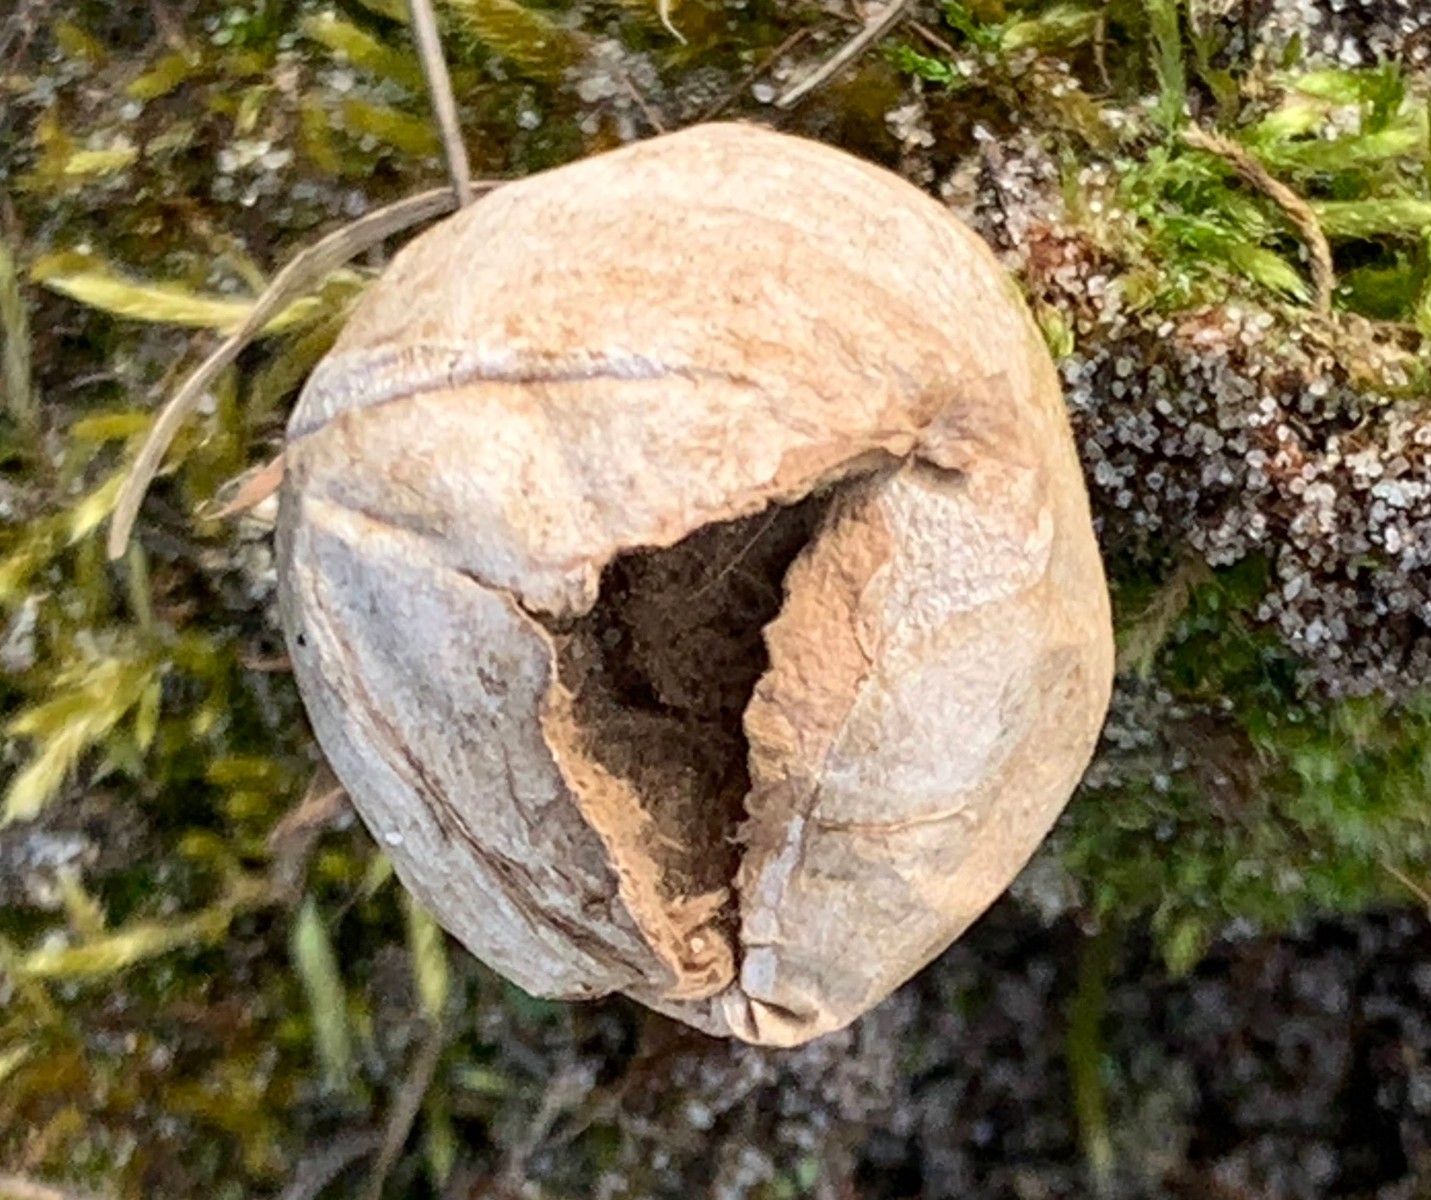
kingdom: Fungi
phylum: Basidiomycota
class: Agaricomycetes
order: Agaricales
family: Lycoperdaceae
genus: Lycoperdon
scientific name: Lycoperdon lividum
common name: mark-støvbold
